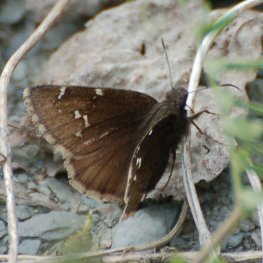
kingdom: Animalia
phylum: Arthropoda
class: Insecta
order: Lepidoptera
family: Hesperiidae
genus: Autochton
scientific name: Autochton
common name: Northern Cloudywing
